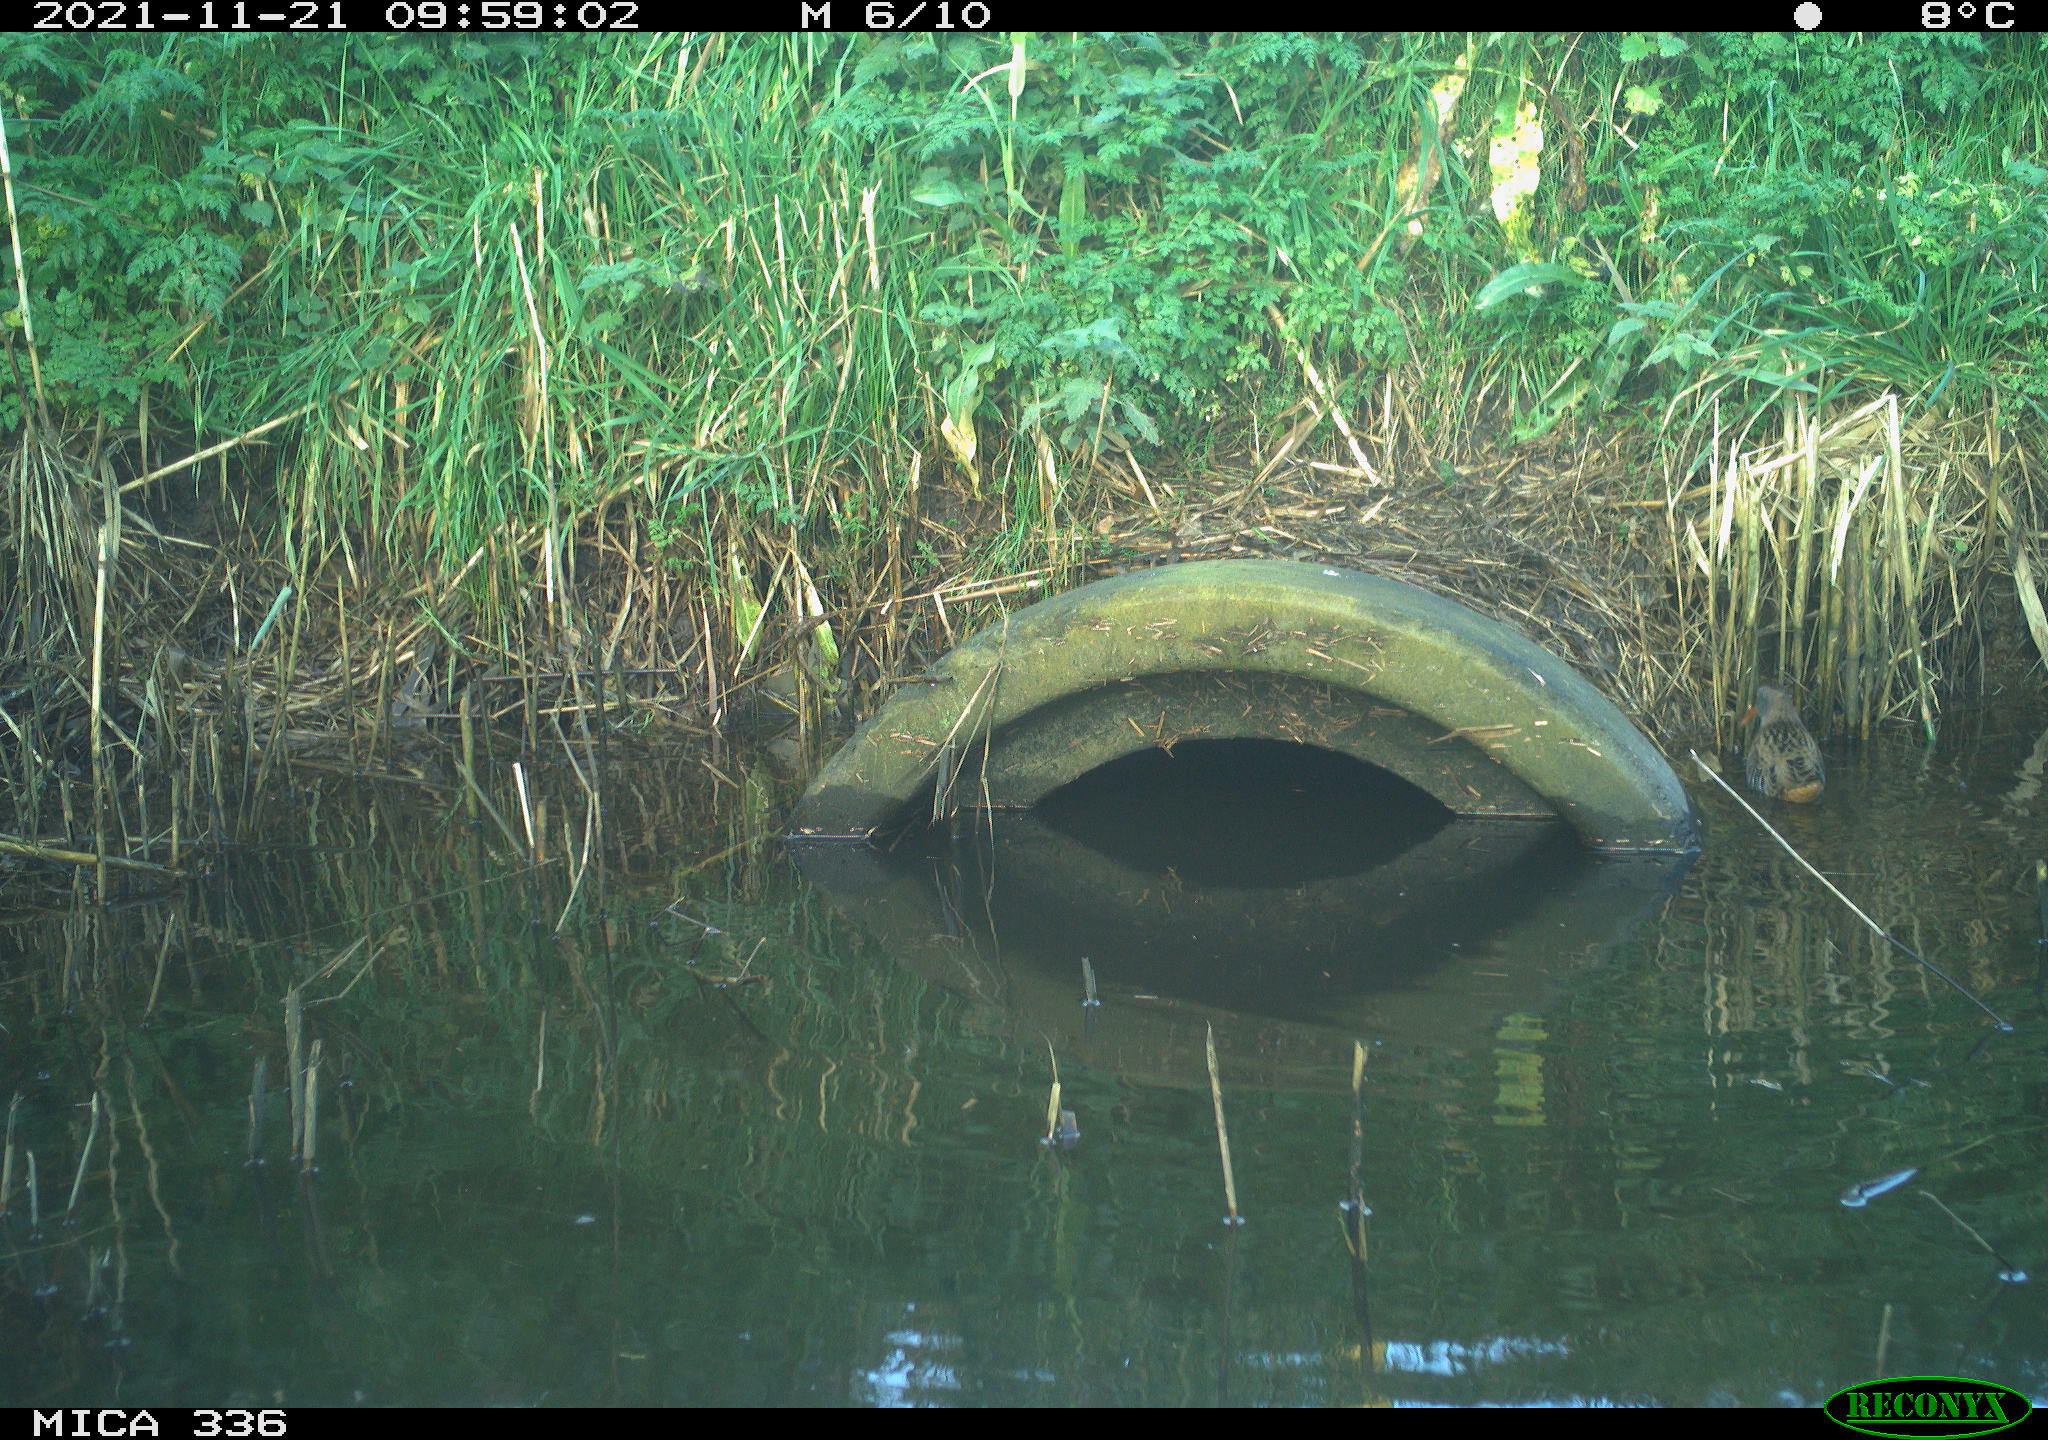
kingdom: Animalia
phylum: Chordata
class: Aves
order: Gruiformes
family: Rallidae
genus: Gallinula
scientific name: Gallinula chloropus
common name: Common moorhen
